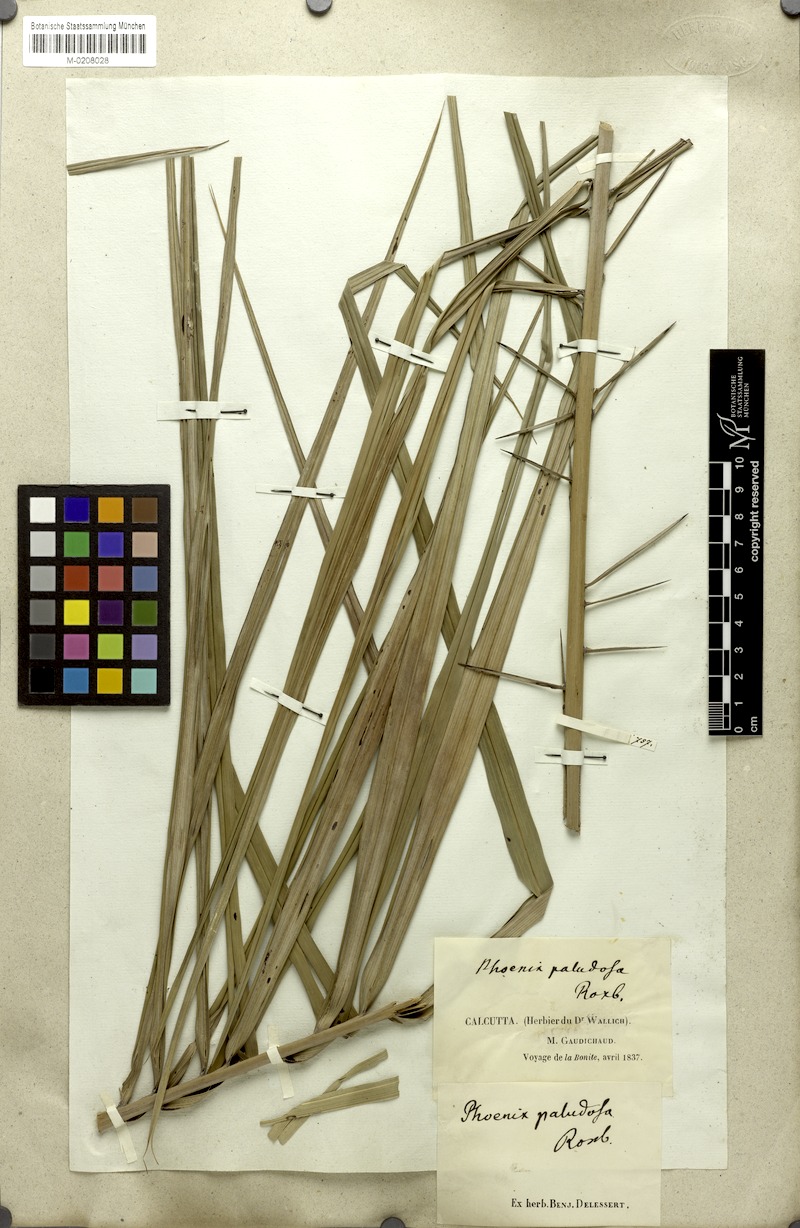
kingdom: Plantae
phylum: Tracheophyta
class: Liliopsida
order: Arecales
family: Arecaceae
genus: Phoenix
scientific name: Phoenix paludosa
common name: Mangrove date palm
